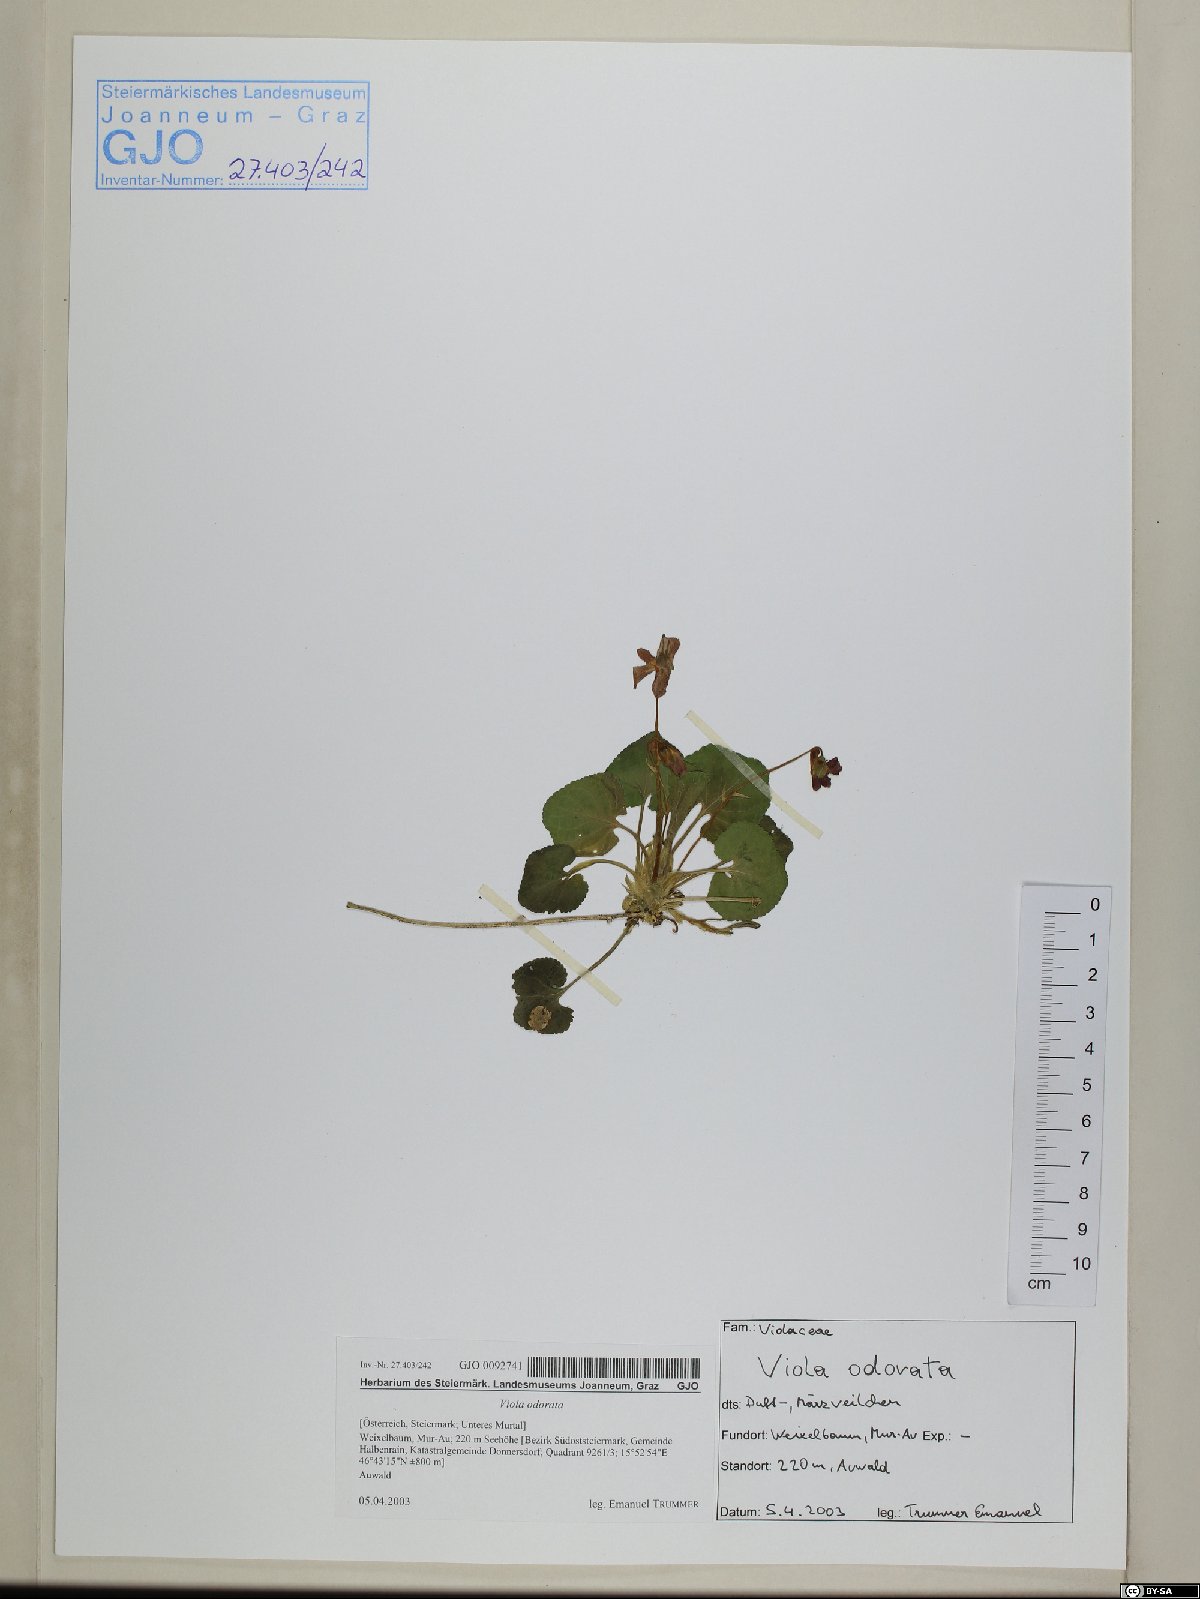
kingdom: Plantae
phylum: Tracheophyta
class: Magnoliopsida
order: Malpighiales
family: Violaceae
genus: Viola
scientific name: Viola odorata
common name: Sweet violet
